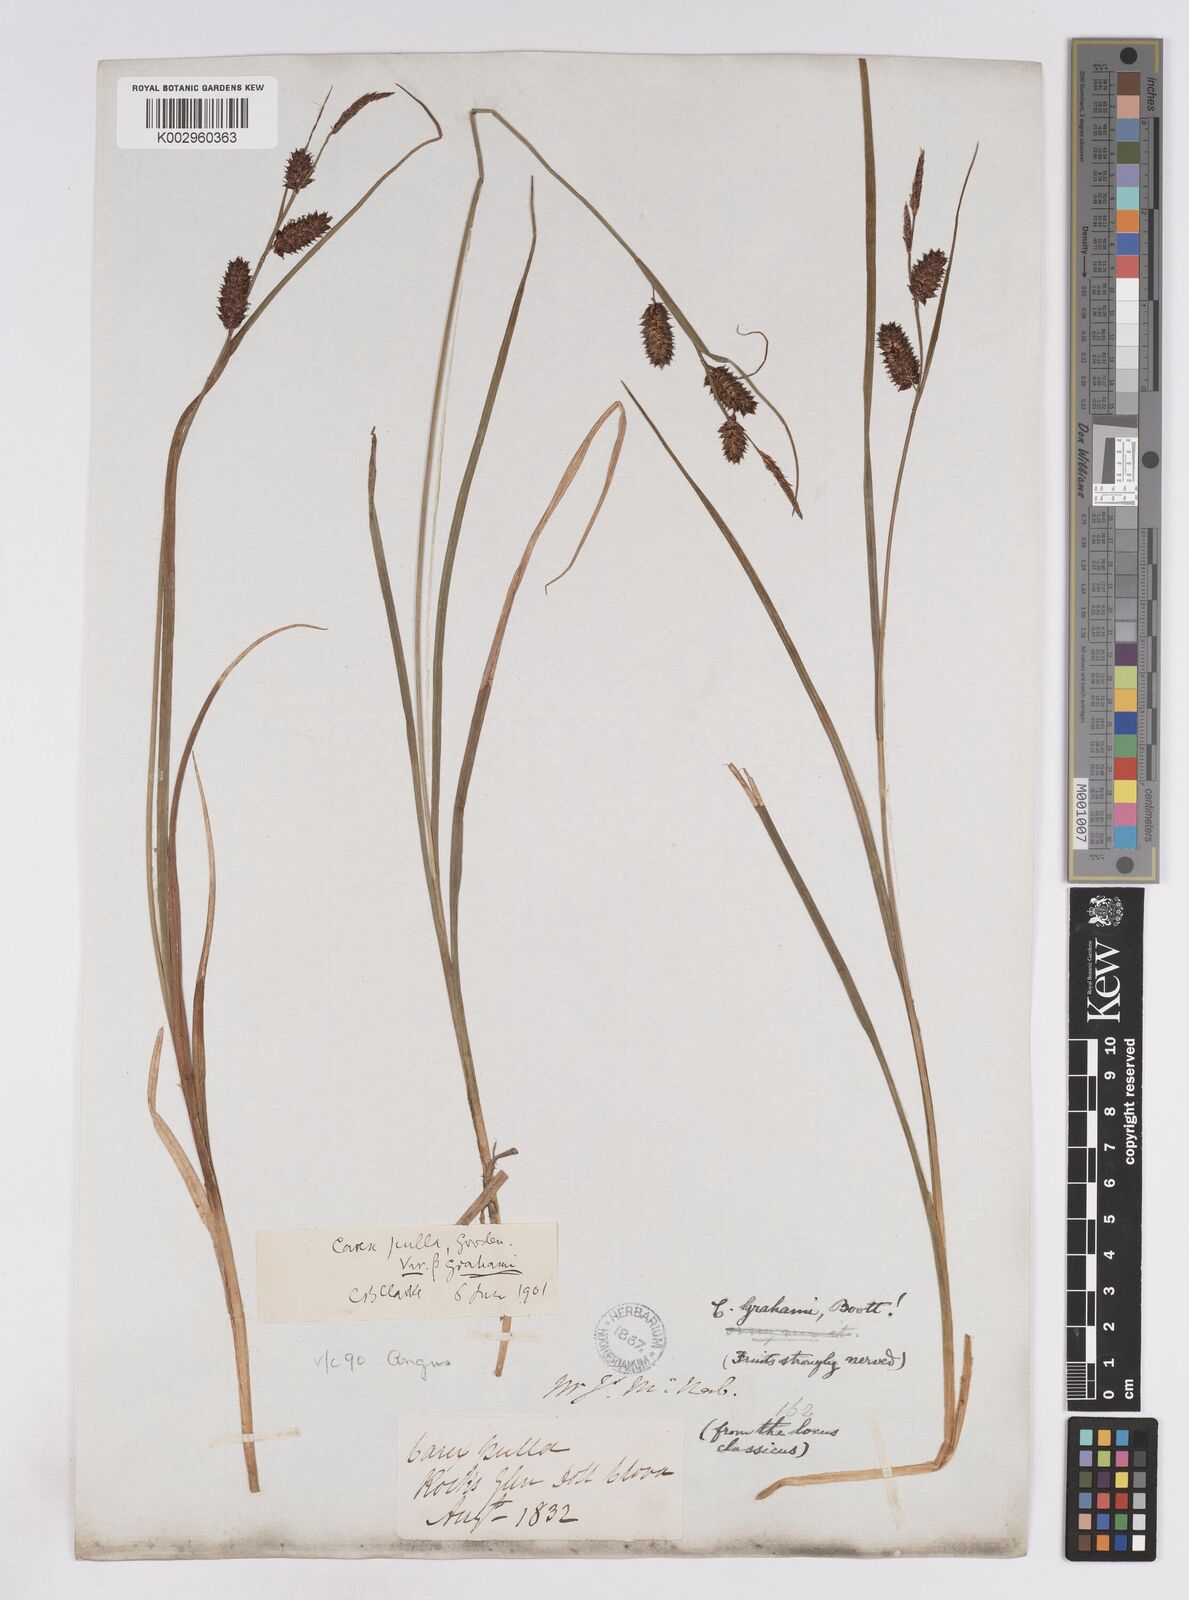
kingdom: Plantae
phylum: Tracheophyta
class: Liliopsida
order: Poales
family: Cyperaceae
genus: Carex
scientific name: Carex vesicaria
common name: Bladder-sedge
